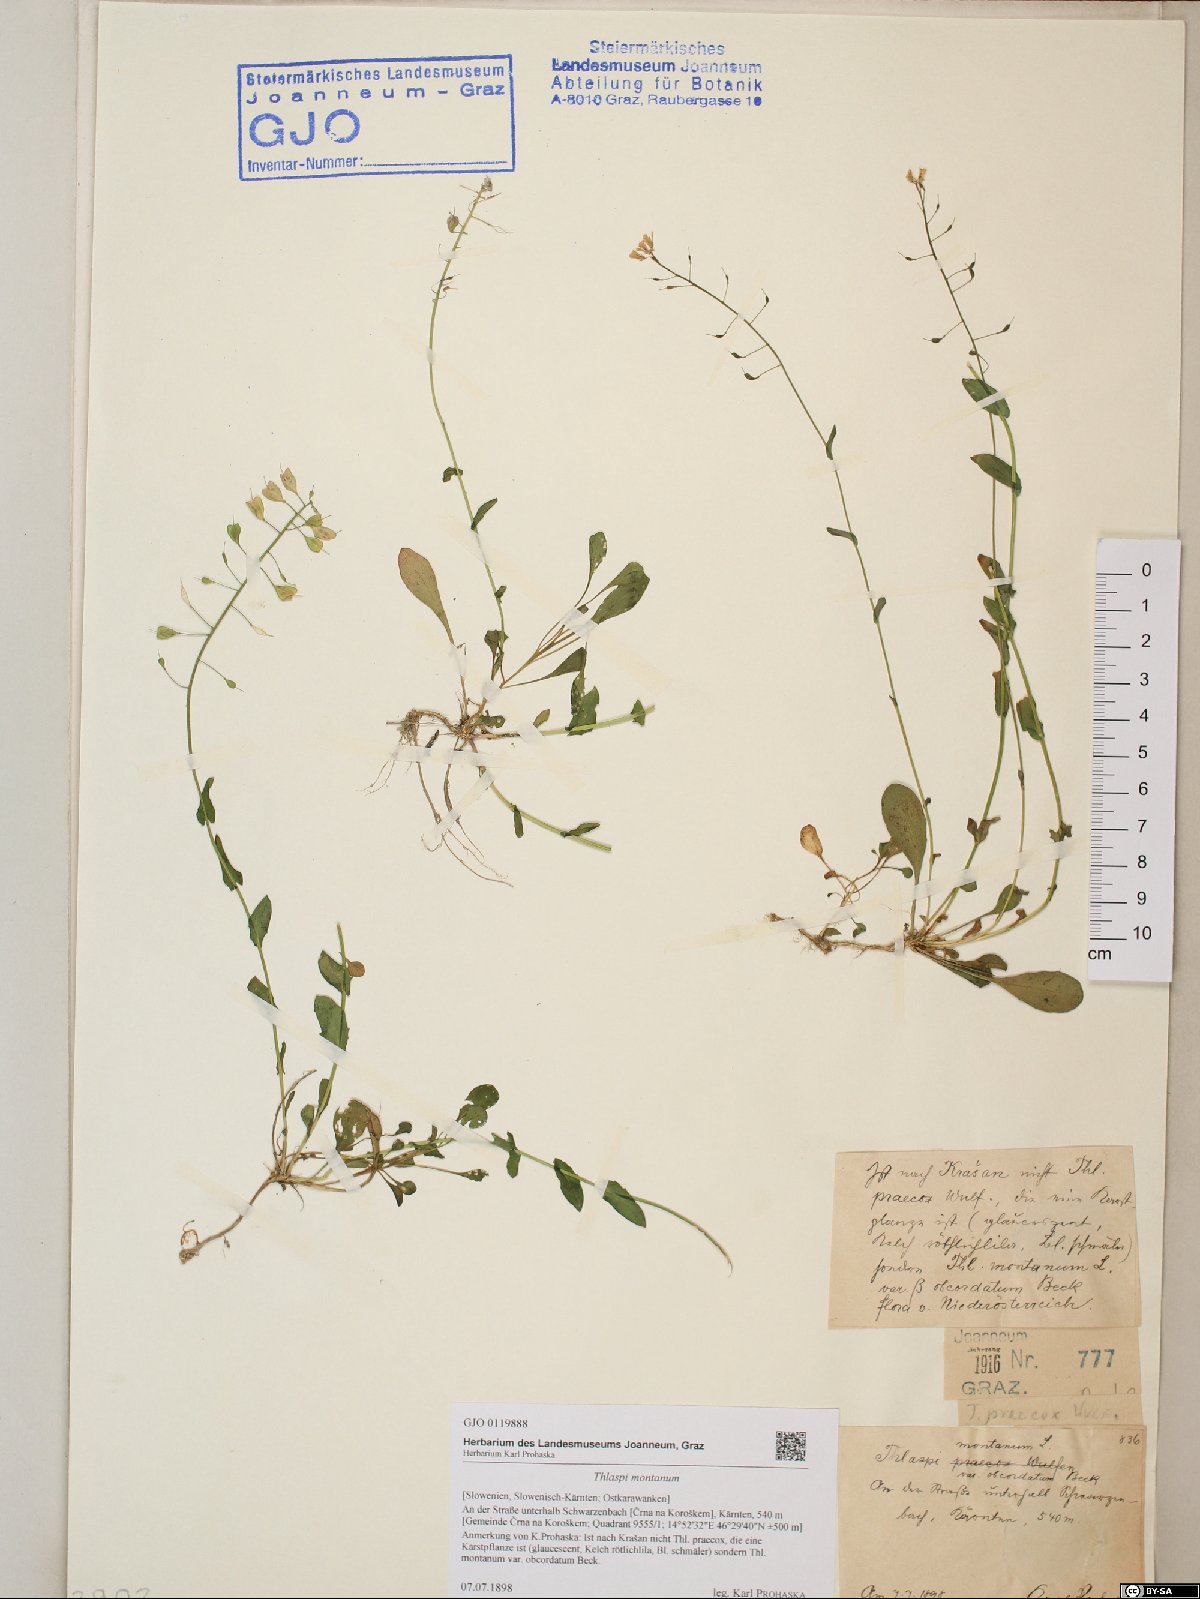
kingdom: Plantae
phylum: Tracheophyta
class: Magnoliopsida
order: Brassicales
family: Brassicaceae
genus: Noccaea
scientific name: Noccaea montana
